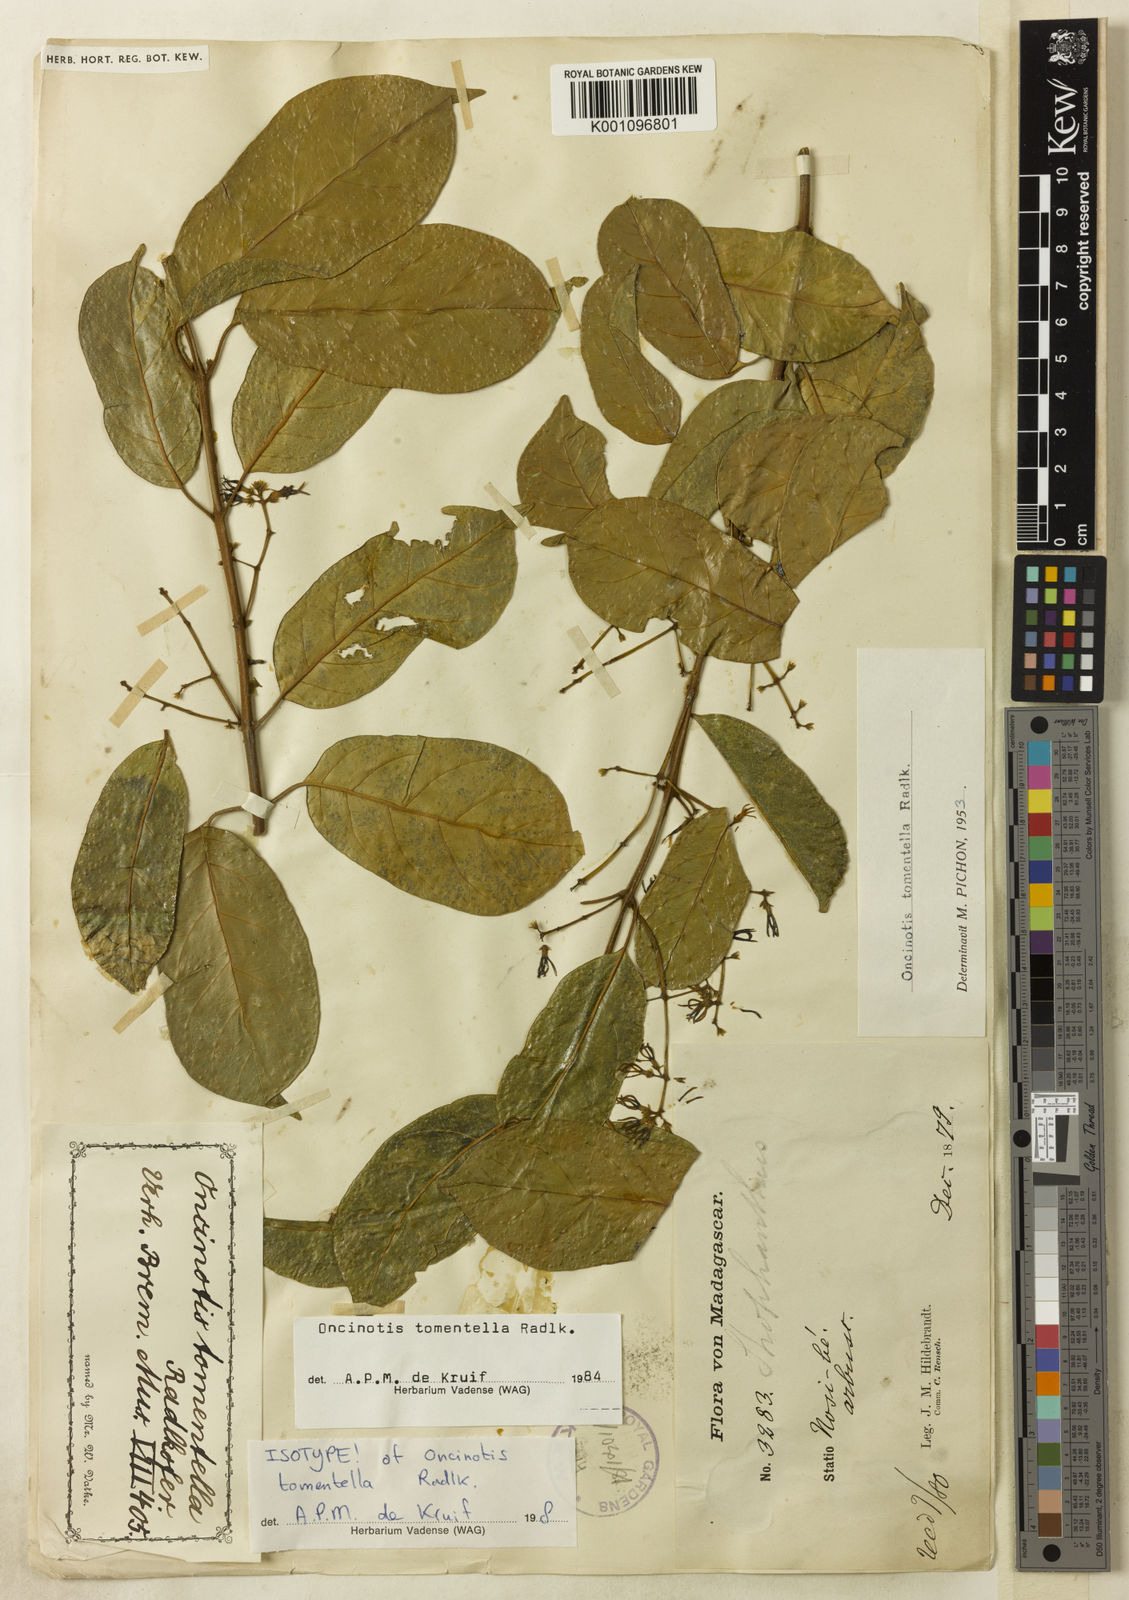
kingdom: Plantae
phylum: Tracheophyta
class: Magnoliopsida
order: Gentianales
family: Apocynaceae
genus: Oncinotis
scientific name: Oncinotis tomentella
